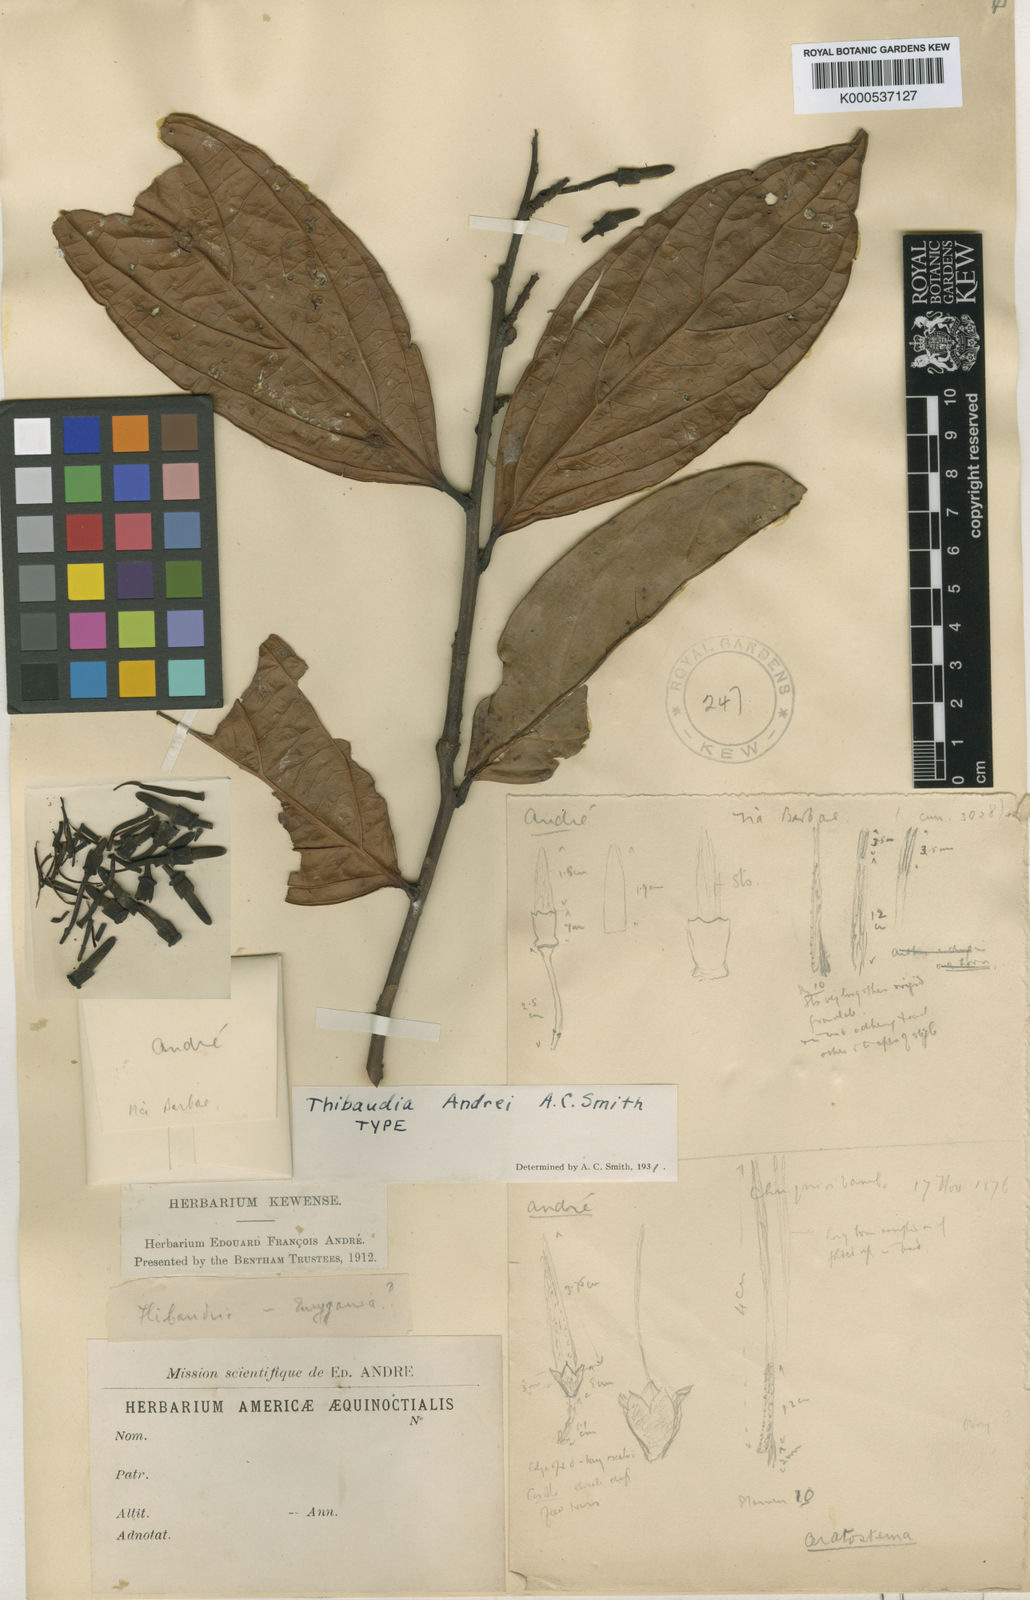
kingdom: Plantae
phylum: Tracheophyta
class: Magnoliopsida
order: Ericales
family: Ericaceae
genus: Thibaudia
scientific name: Thibaudia andrei
